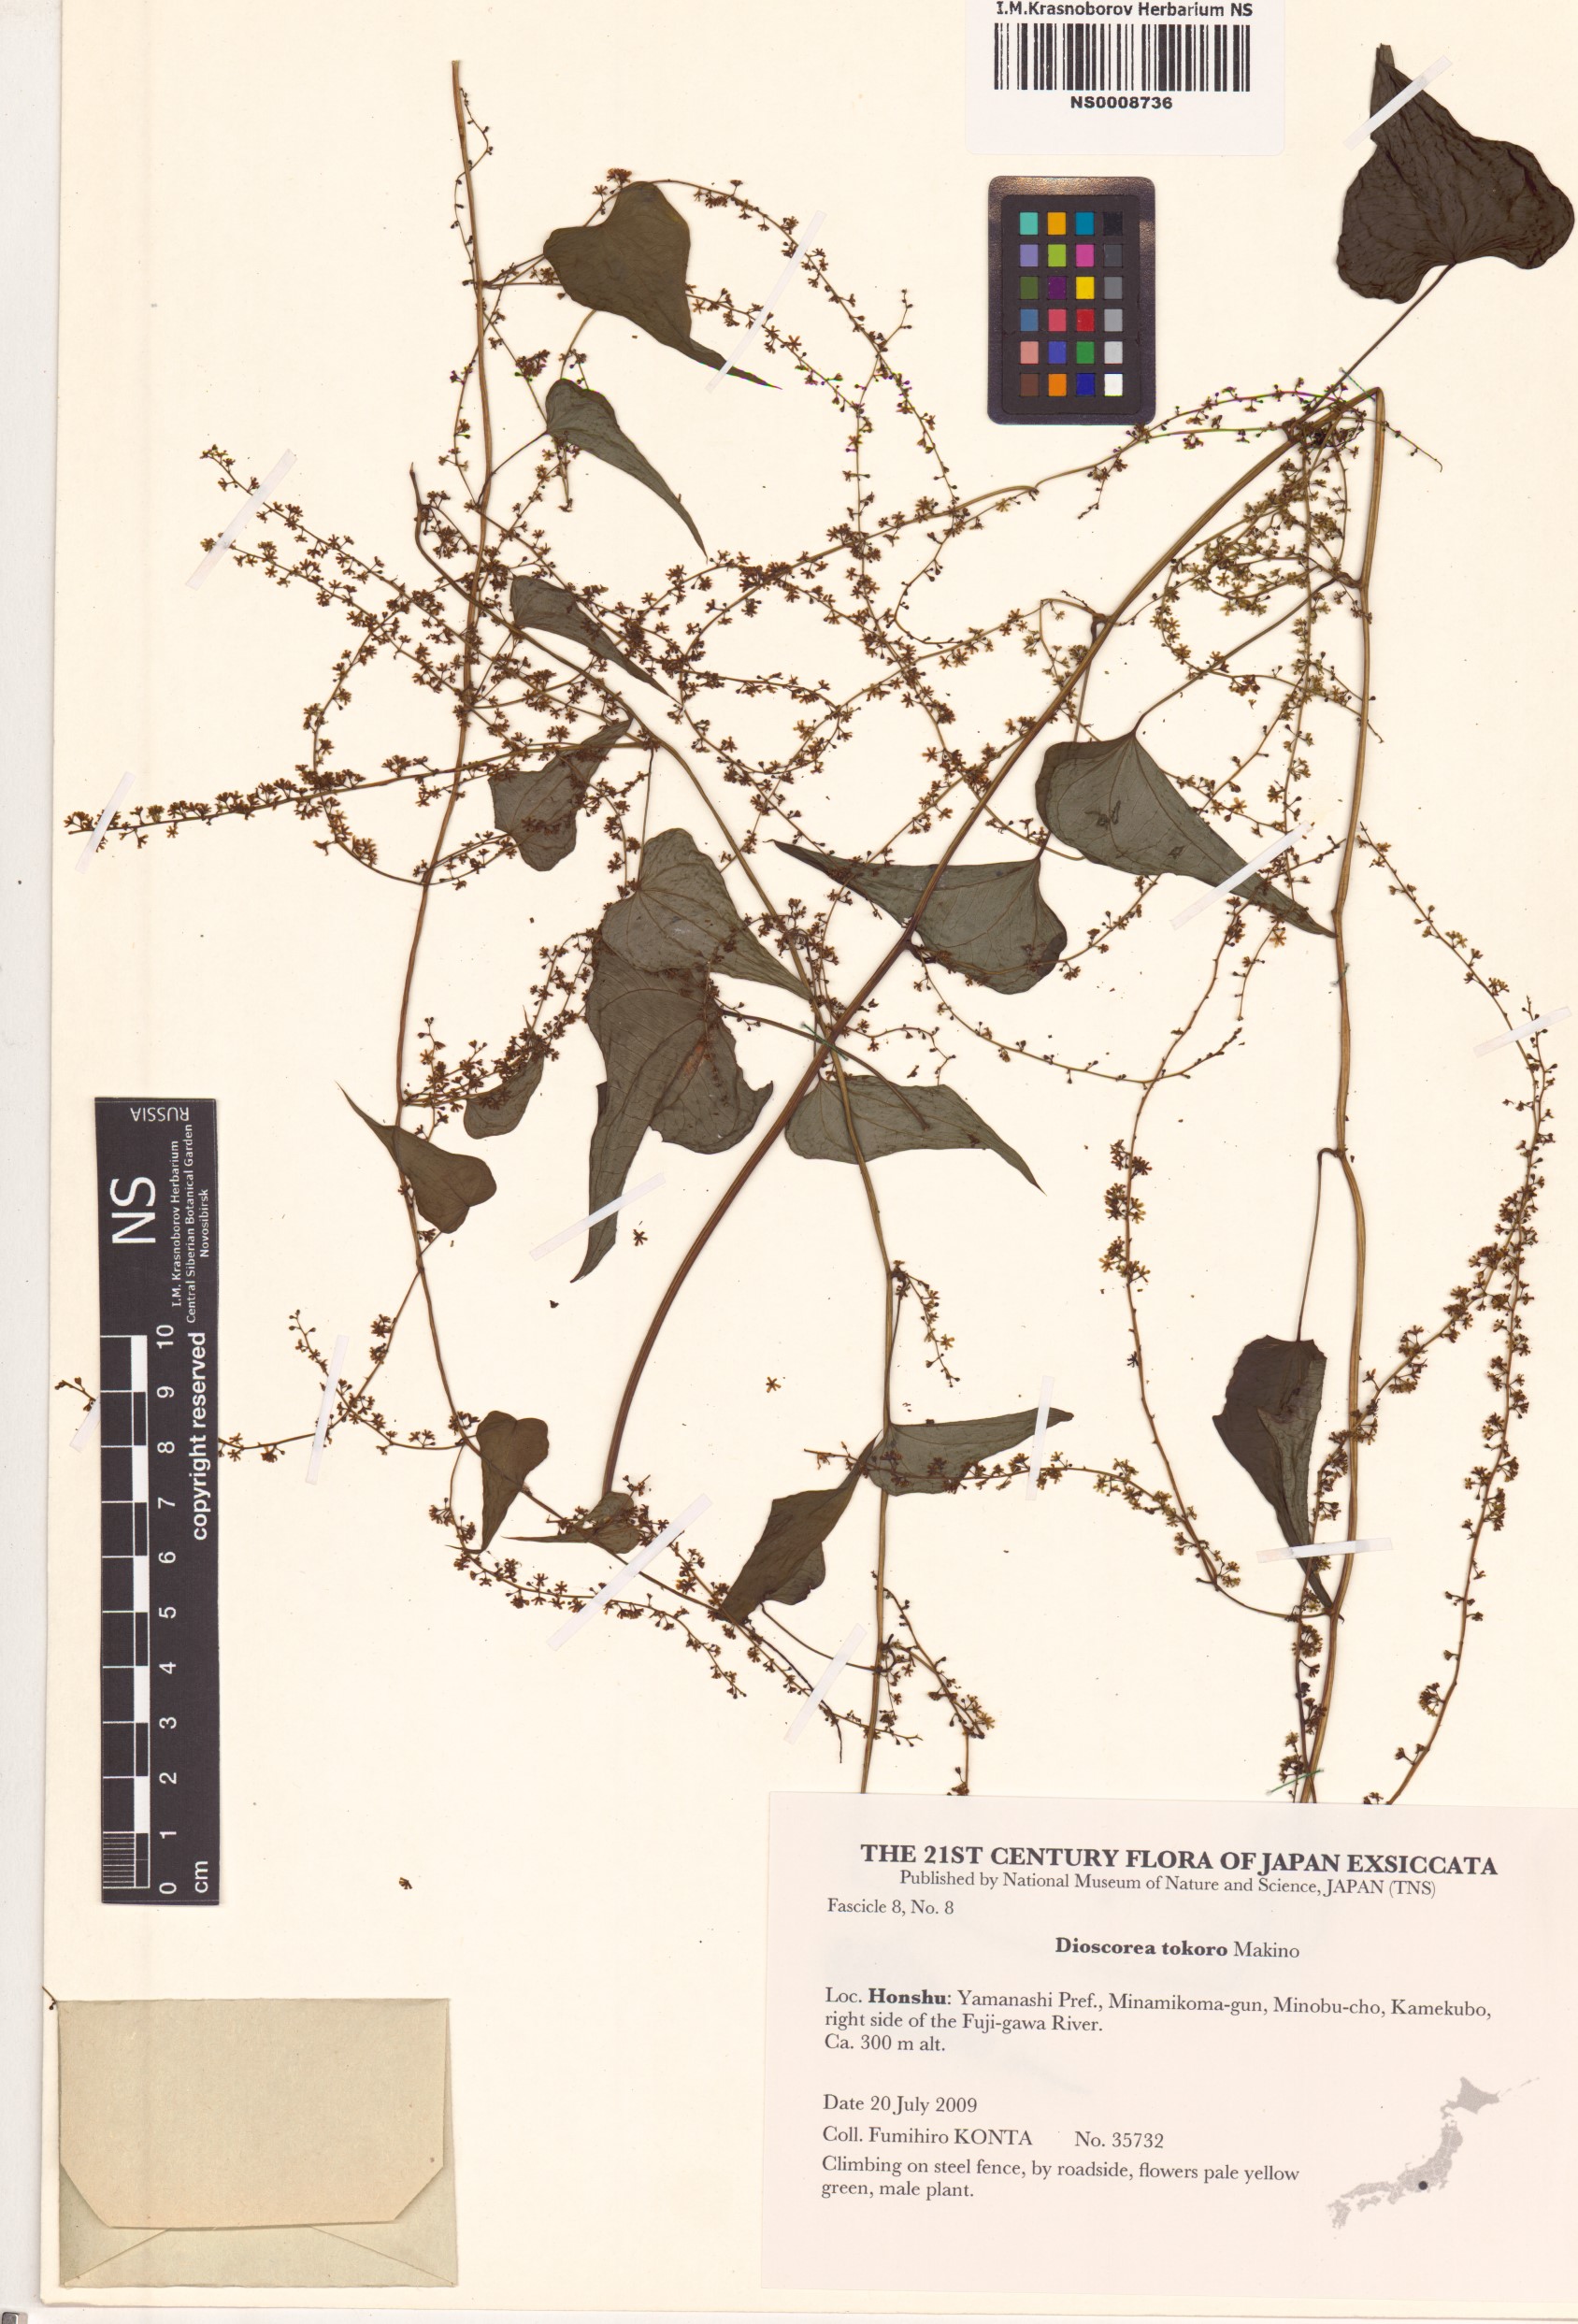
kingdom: Plantae
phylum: Tracheophyta
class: Liliopsida
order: Dioscoreales
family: Dioscoreaceae
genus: Dioscorea
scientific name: Dioscorea tokoro
